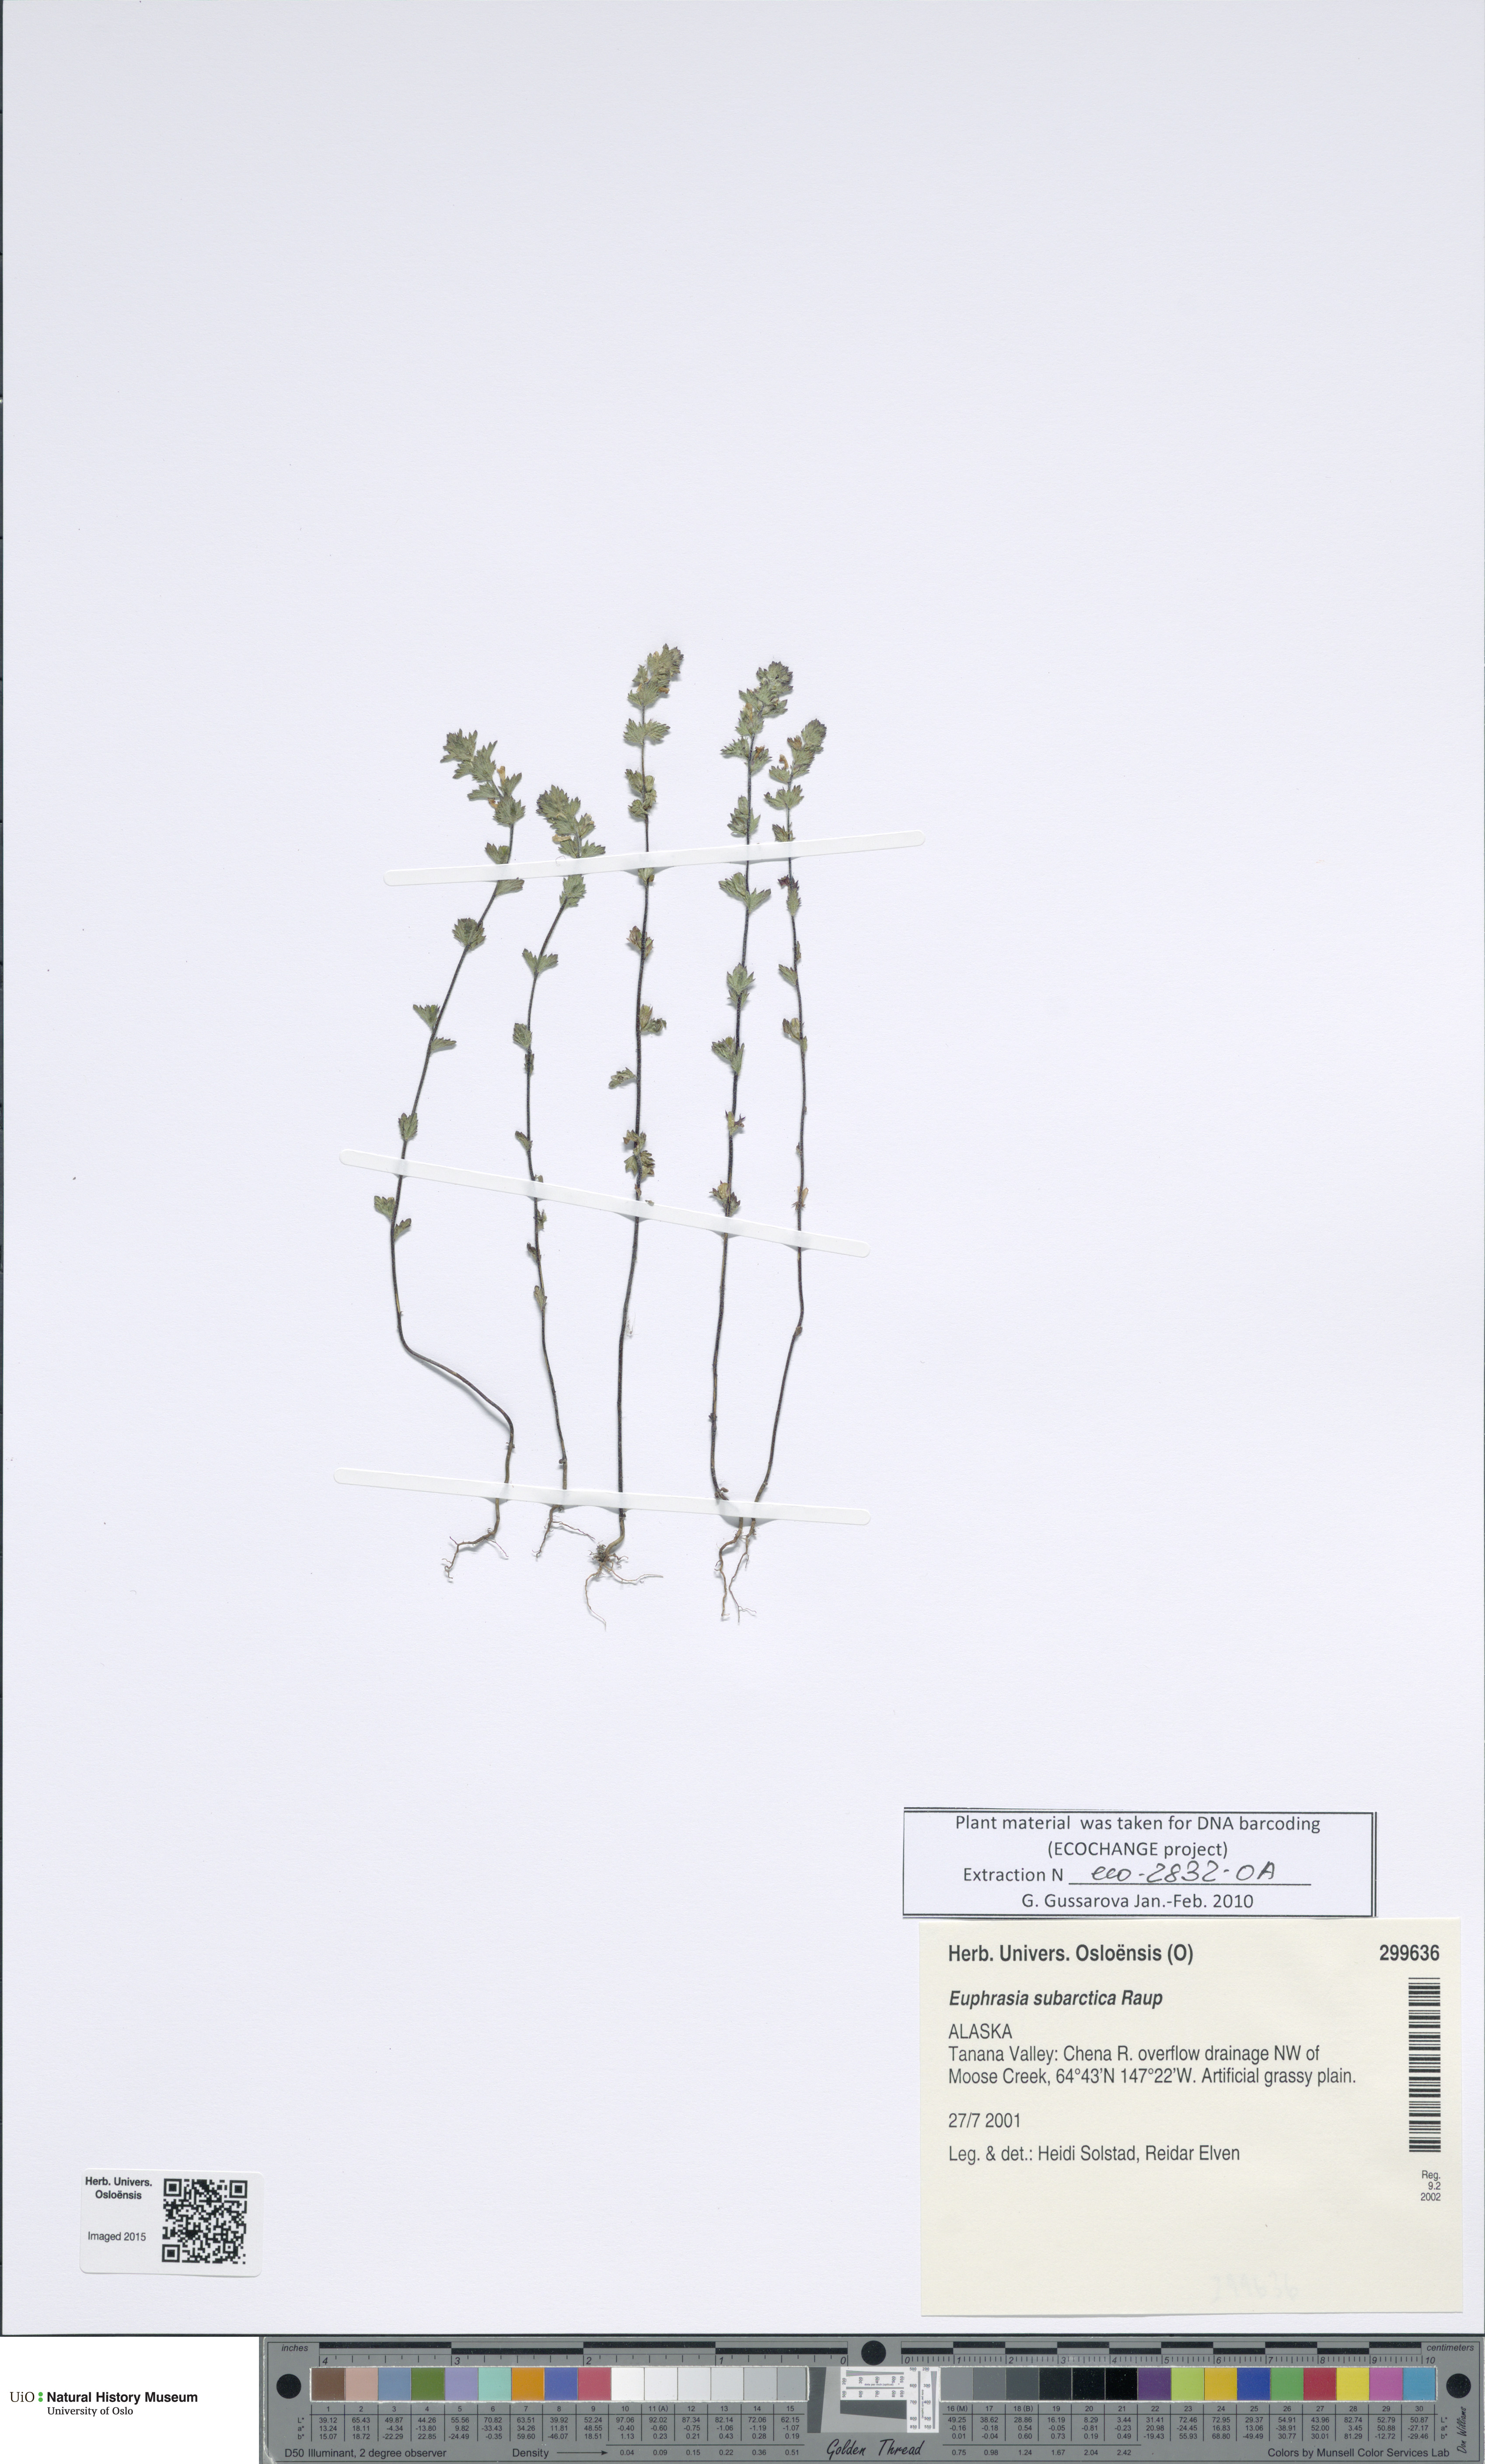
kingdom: Plantae
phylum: Tracheophyta
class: Magnoliopsida
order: Lamiales
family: Orobanchaceae
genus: Euphrasia
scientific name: Euphrasia subarctica
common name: Subarctic eyebright
